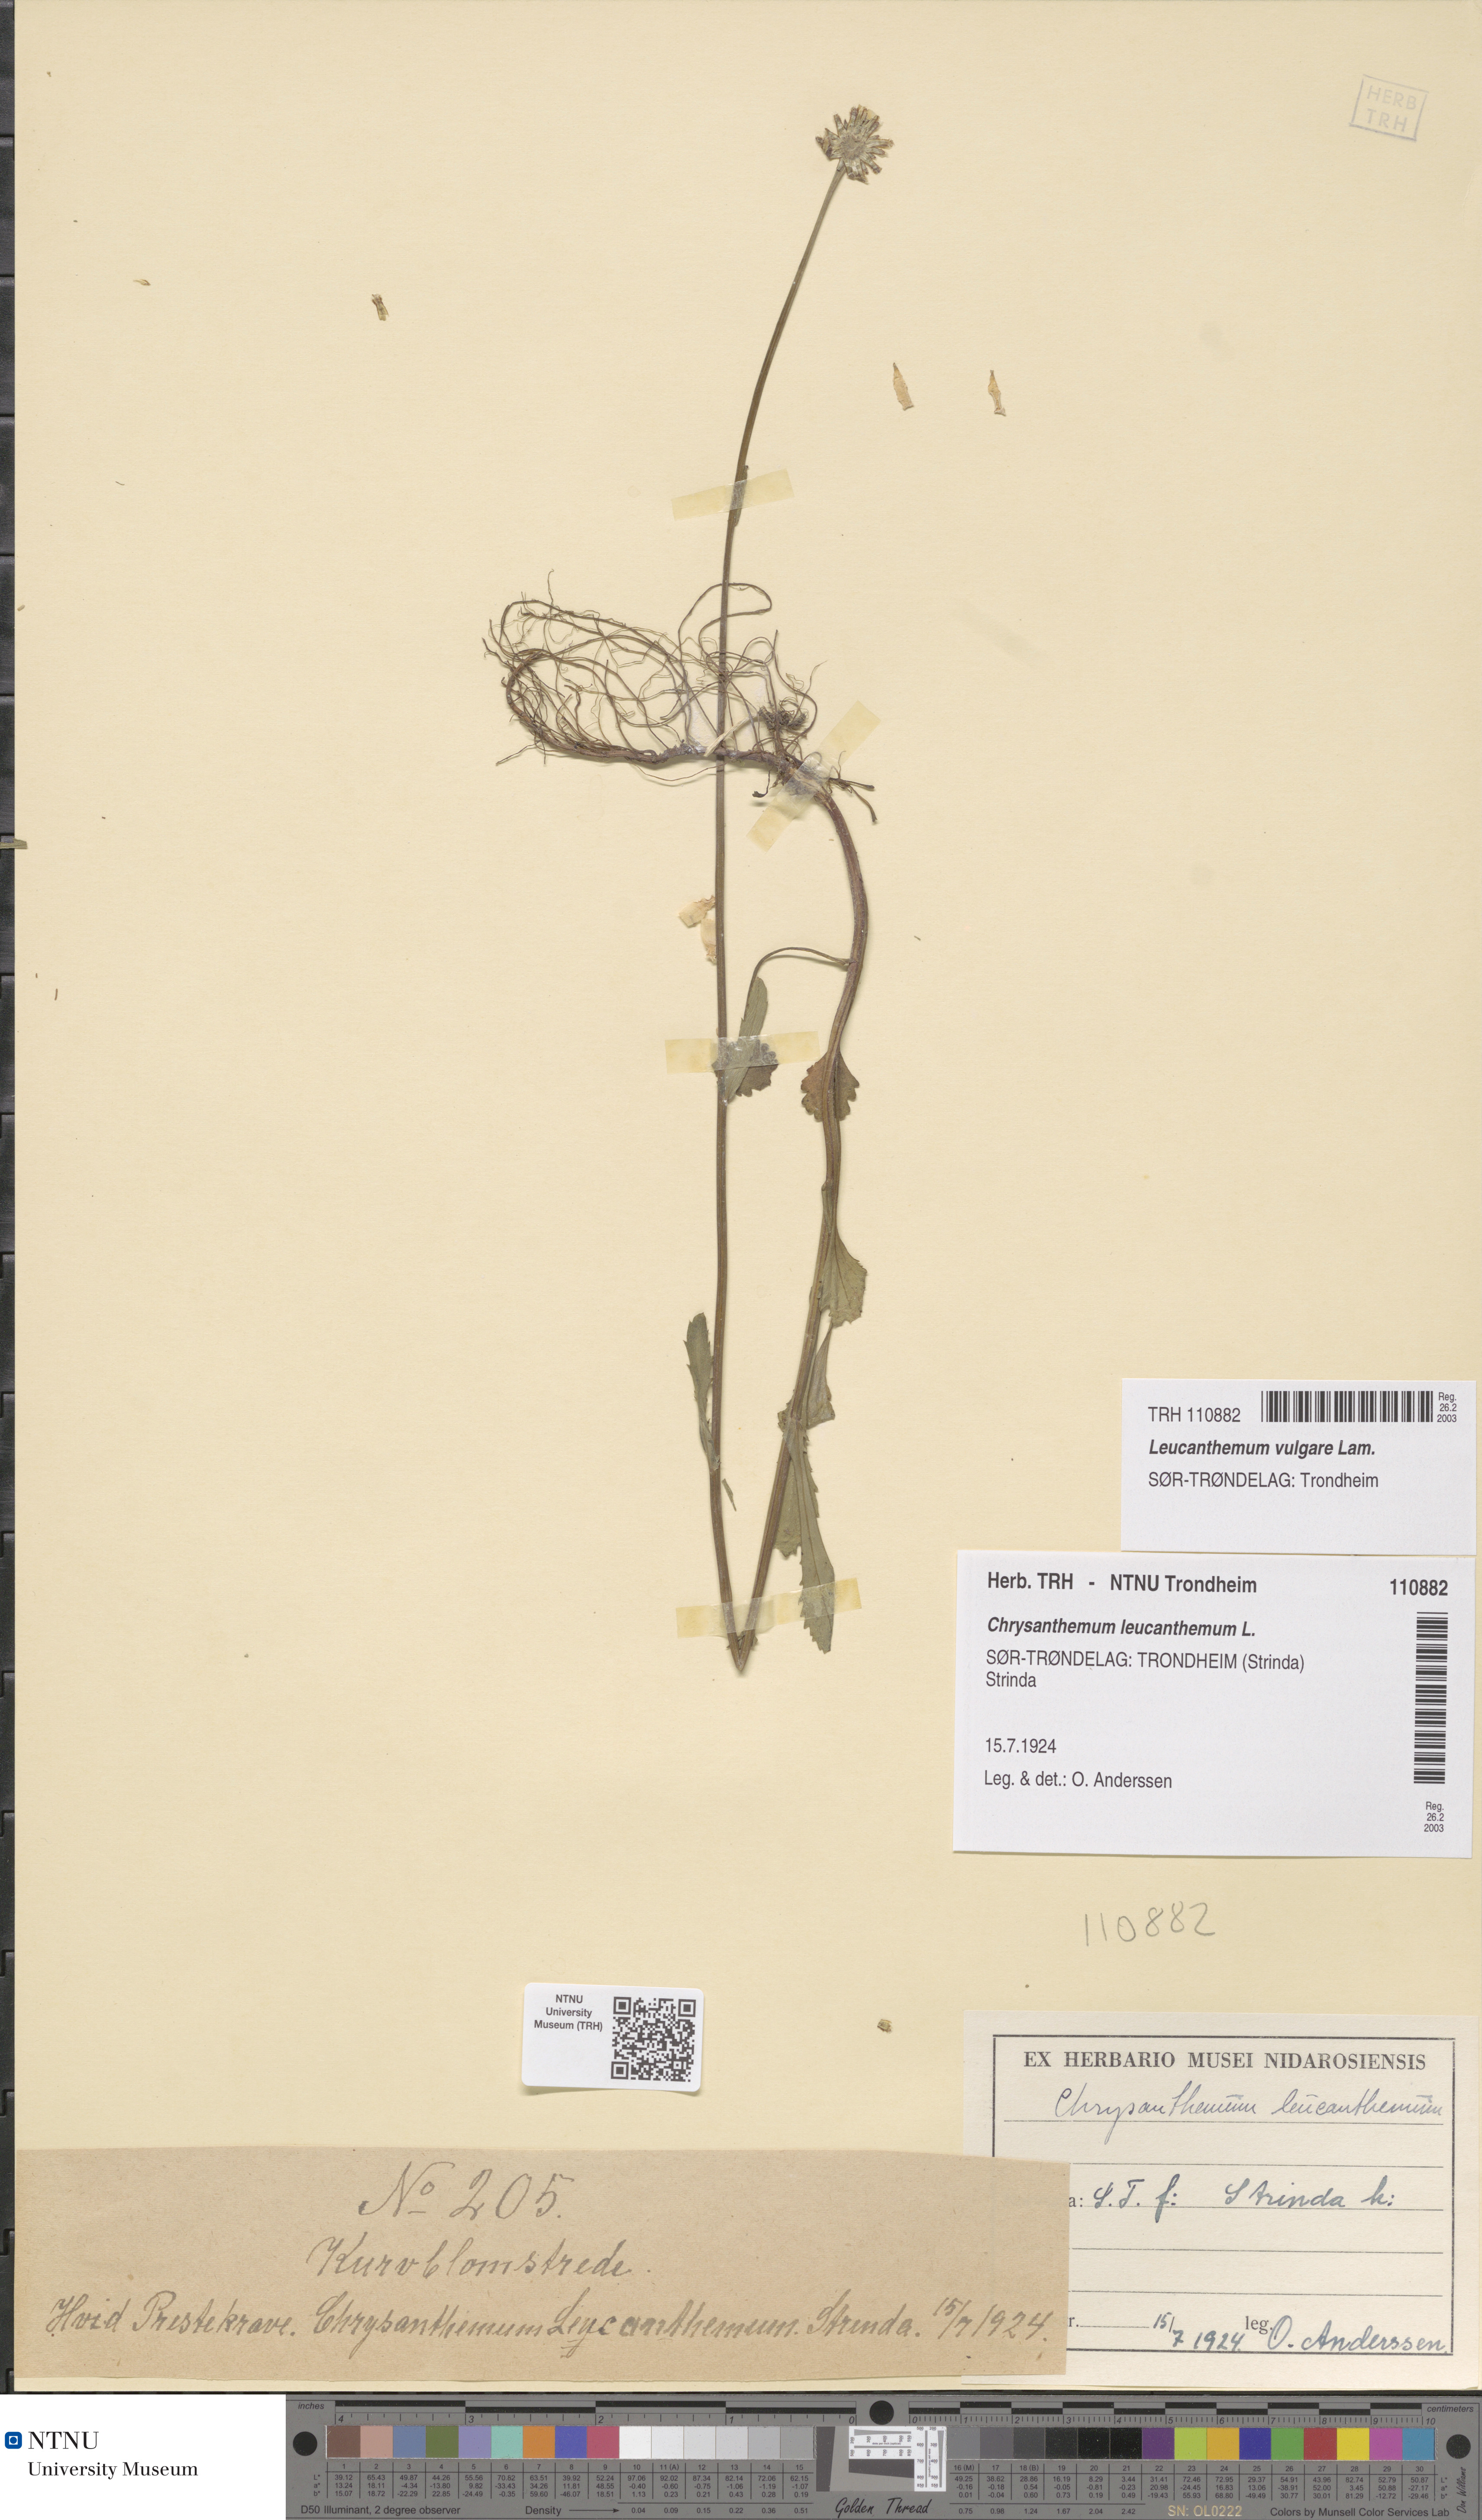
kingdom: Plantae
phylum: Tracheophyta
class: Magnoliopsida
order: Asterales
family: Asteraceae
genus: Leucanthemum
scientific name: Leucanthemum vulgare
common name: Oxeye daisy
